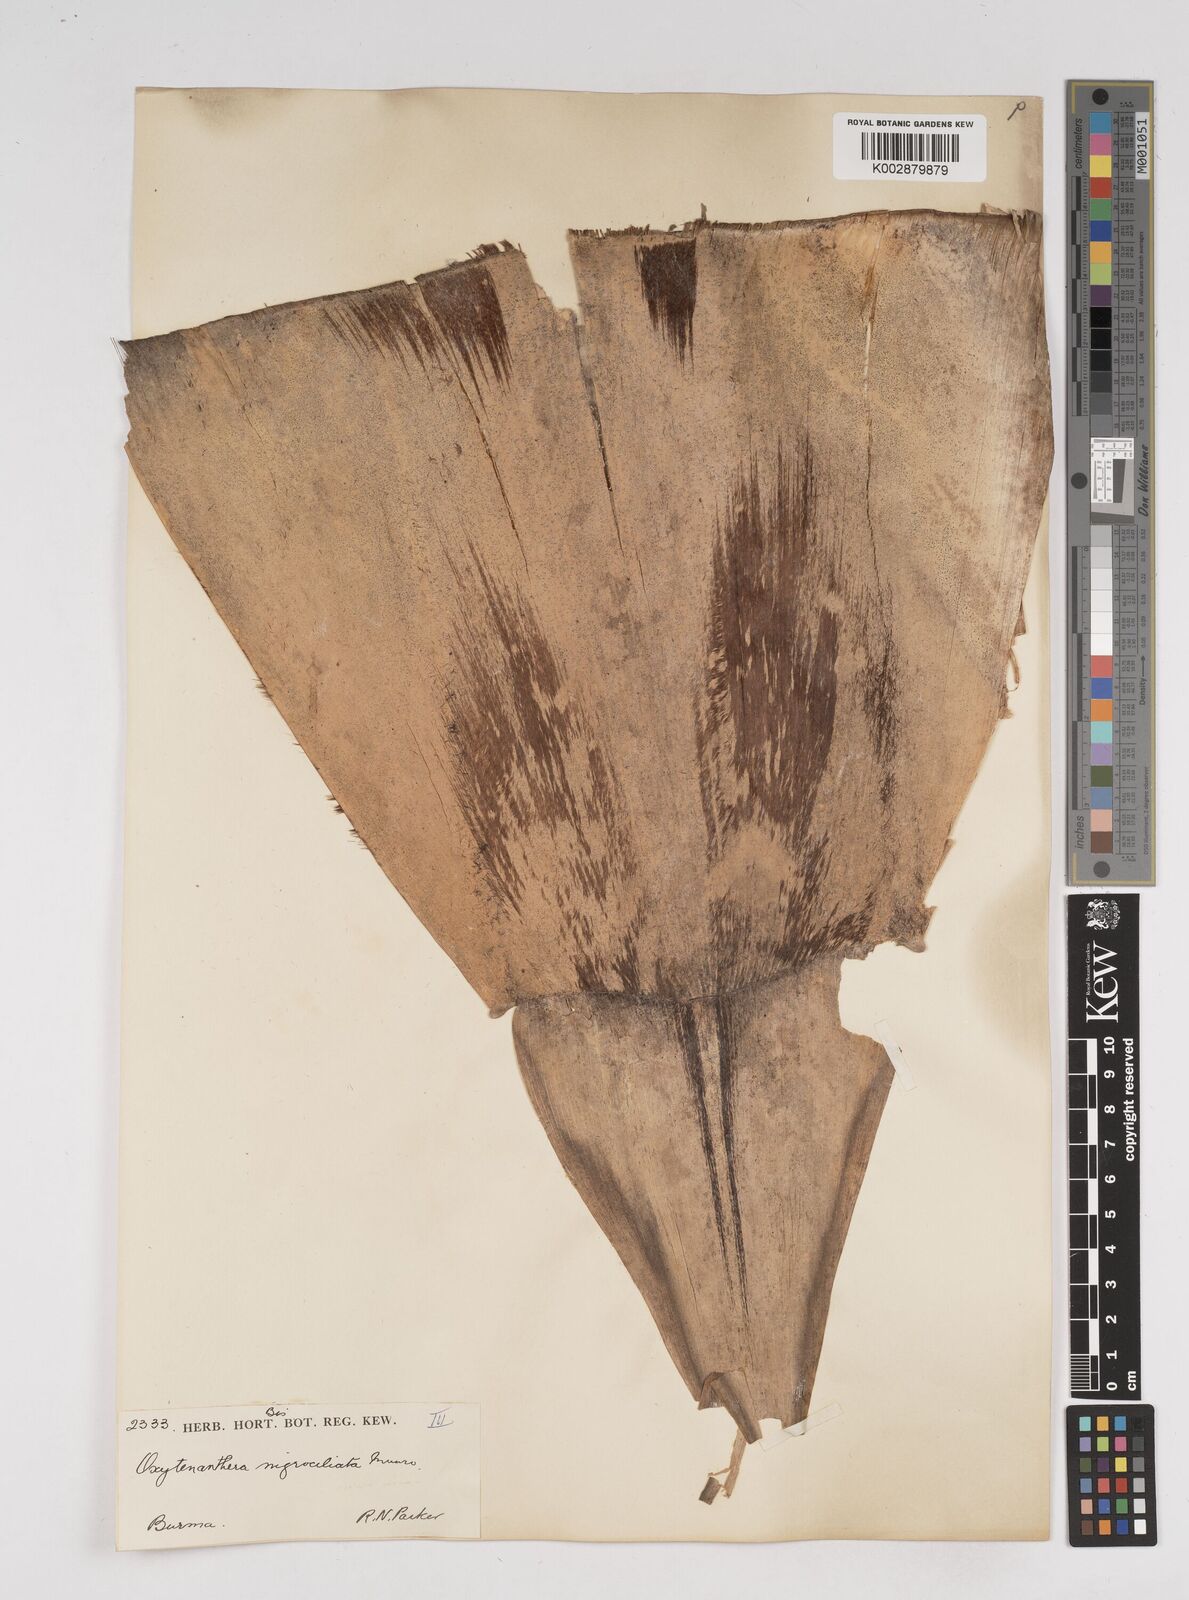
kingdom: Plantae
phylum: Tracheophyta
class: Liliopsida
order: Poales
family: Poaceae
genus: Gigantochloa
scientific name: Gigantochloa
